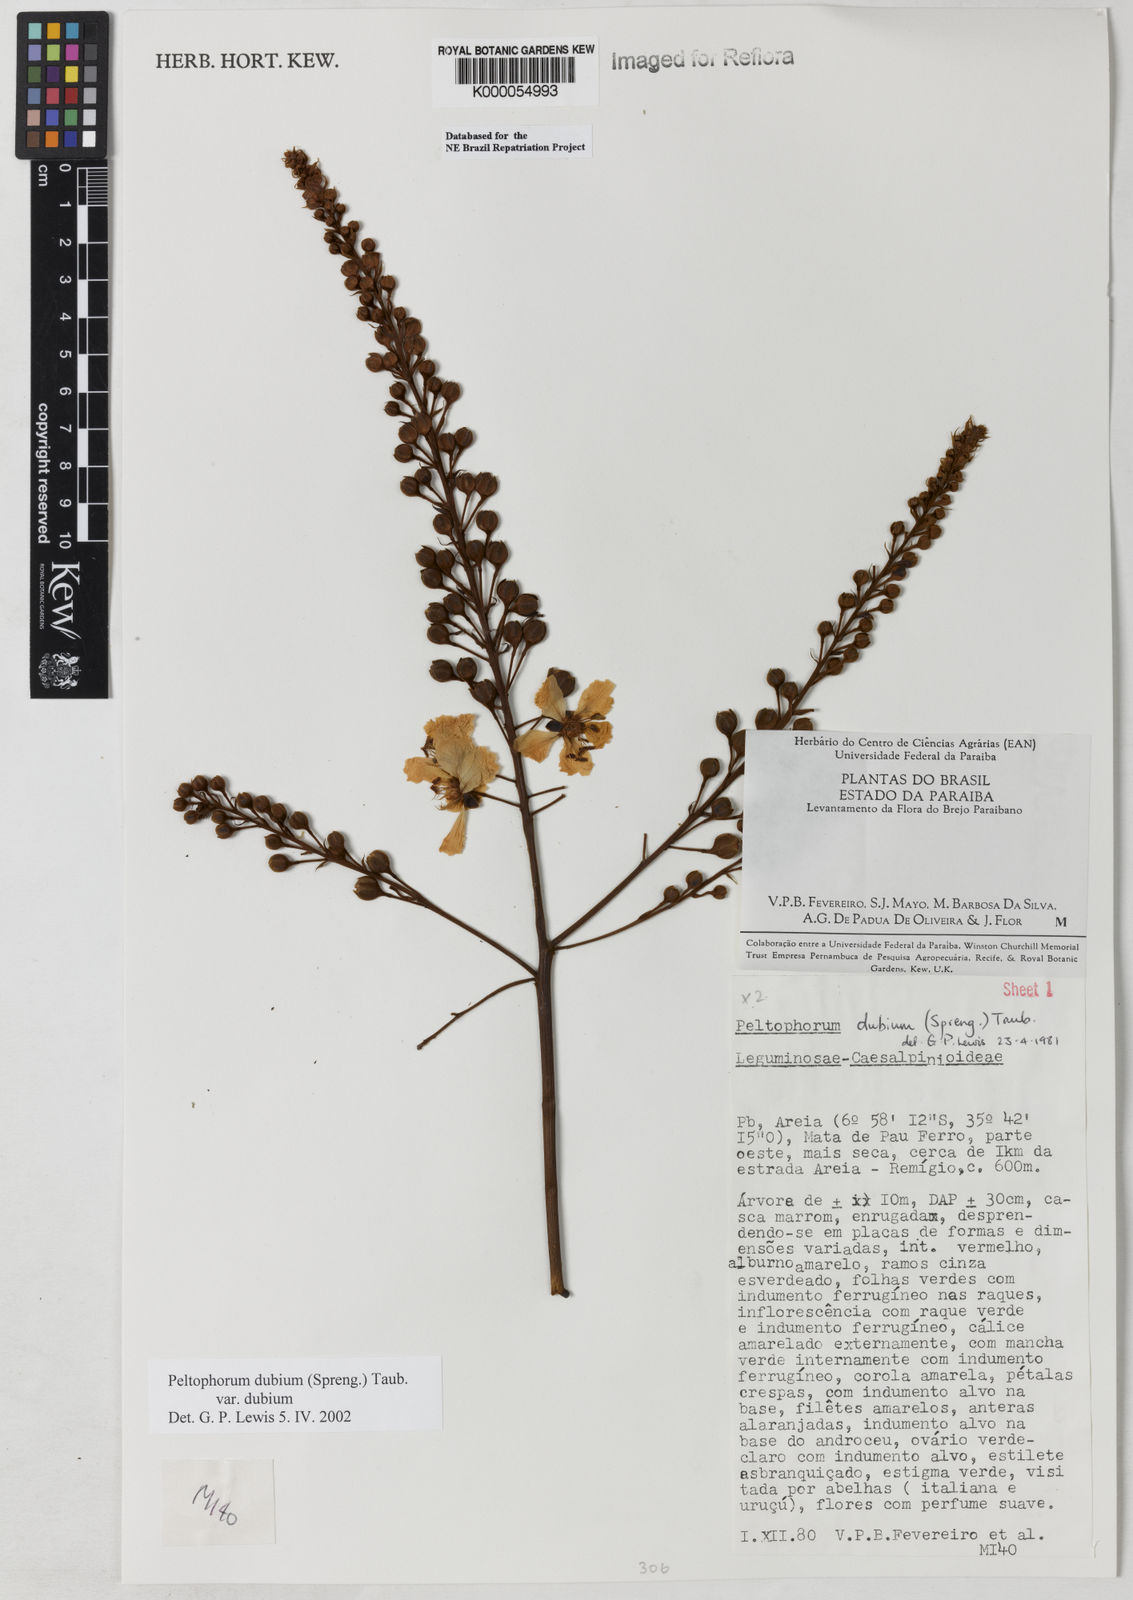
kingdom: Plantae
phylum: Tracheophyta
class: Magnoliopsida
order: Fabales
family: Fabaceae
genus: Peltophorum
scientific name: Peltophorum dubium
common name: Horsebush
